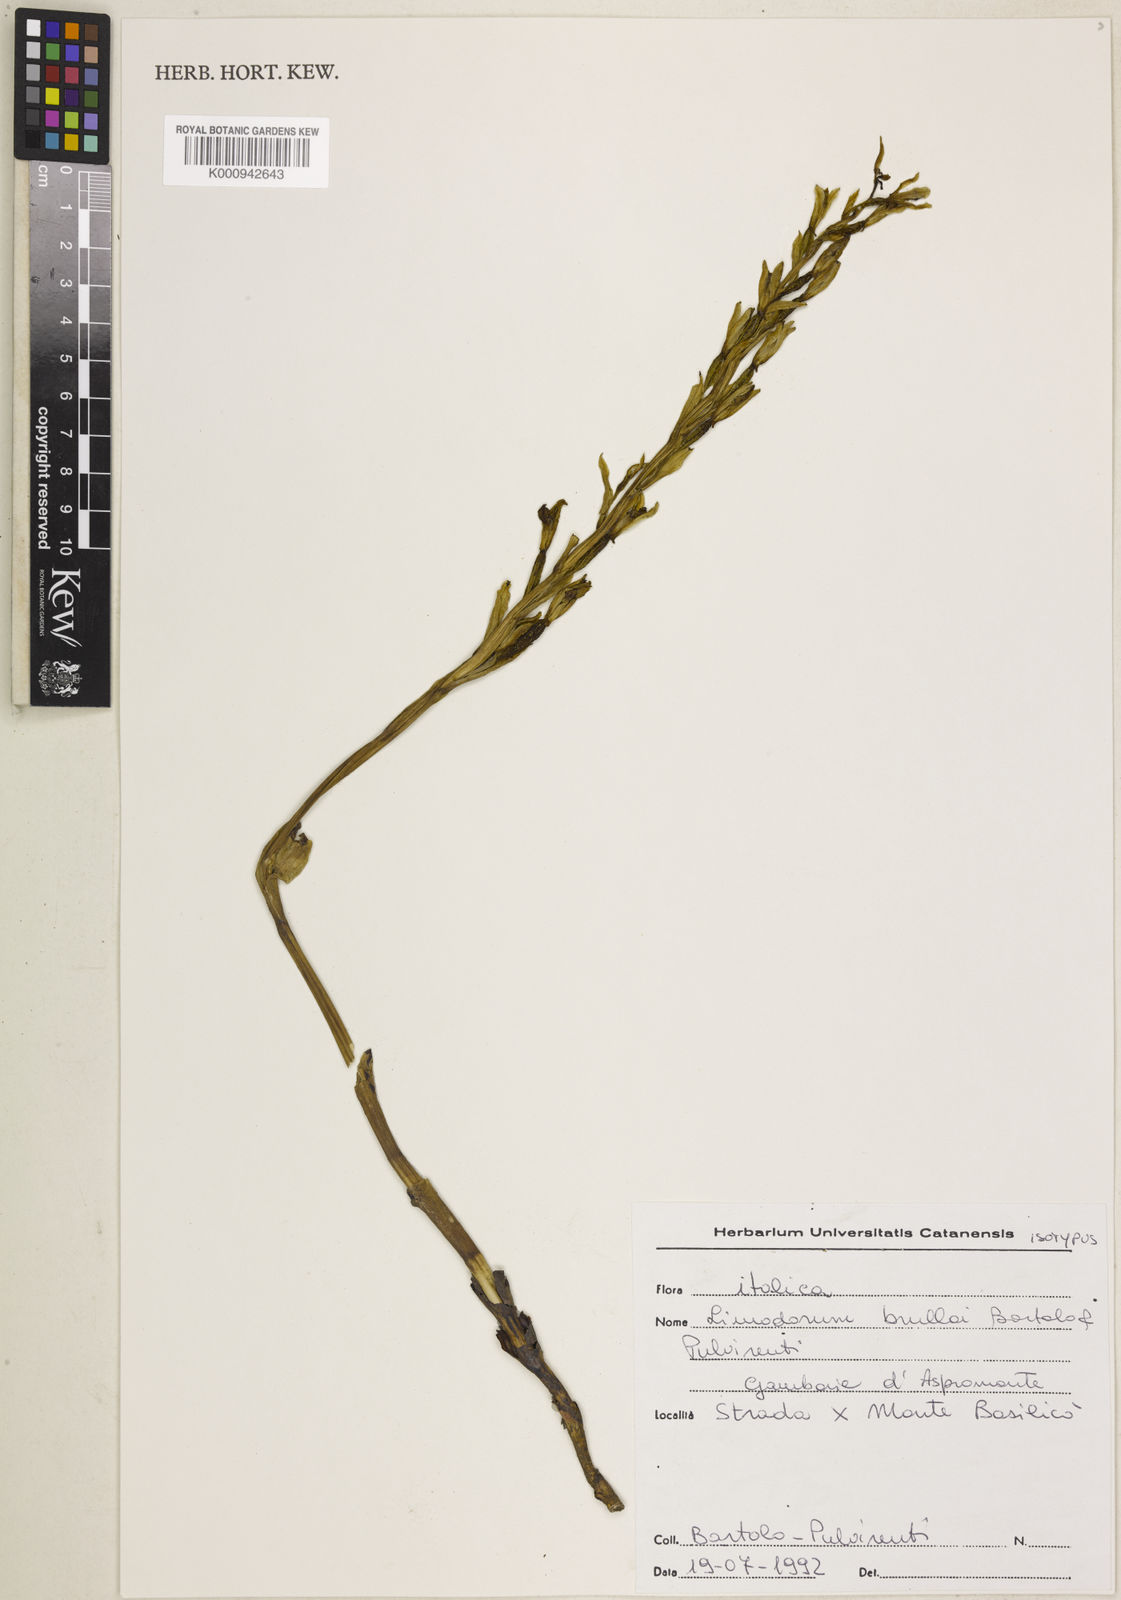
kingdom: Plantae
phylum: Tracheophyta
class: Liliopsida
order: Asparagales
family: Orchidaceae
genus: Limodorum
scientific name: Limodorum abortivum
